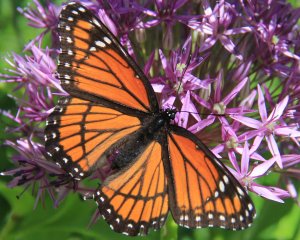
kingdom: Animalia
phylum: Arthropoda
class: Insecta
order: Lepidoptera
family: Nymphalidae
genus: Limenitis
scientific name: Limenitis archippus
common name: Viceroy
